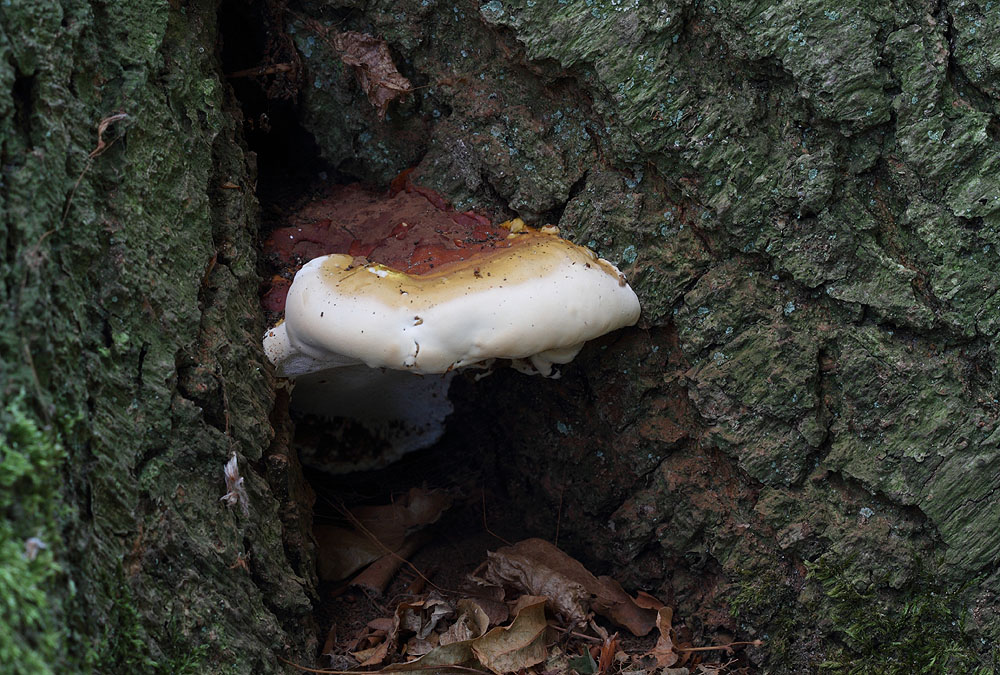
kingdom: Fungi
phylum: Basidiomycota
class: Agaricomycetes
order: Polyporales
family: Polyporaceae
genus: Ganoderma
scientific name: Ganoderma resinaceum
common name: gyldenbrun lakporesvamp
